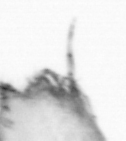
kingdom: Animalia
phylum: Arthropoda
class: Copepoda
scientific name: Copepoda
